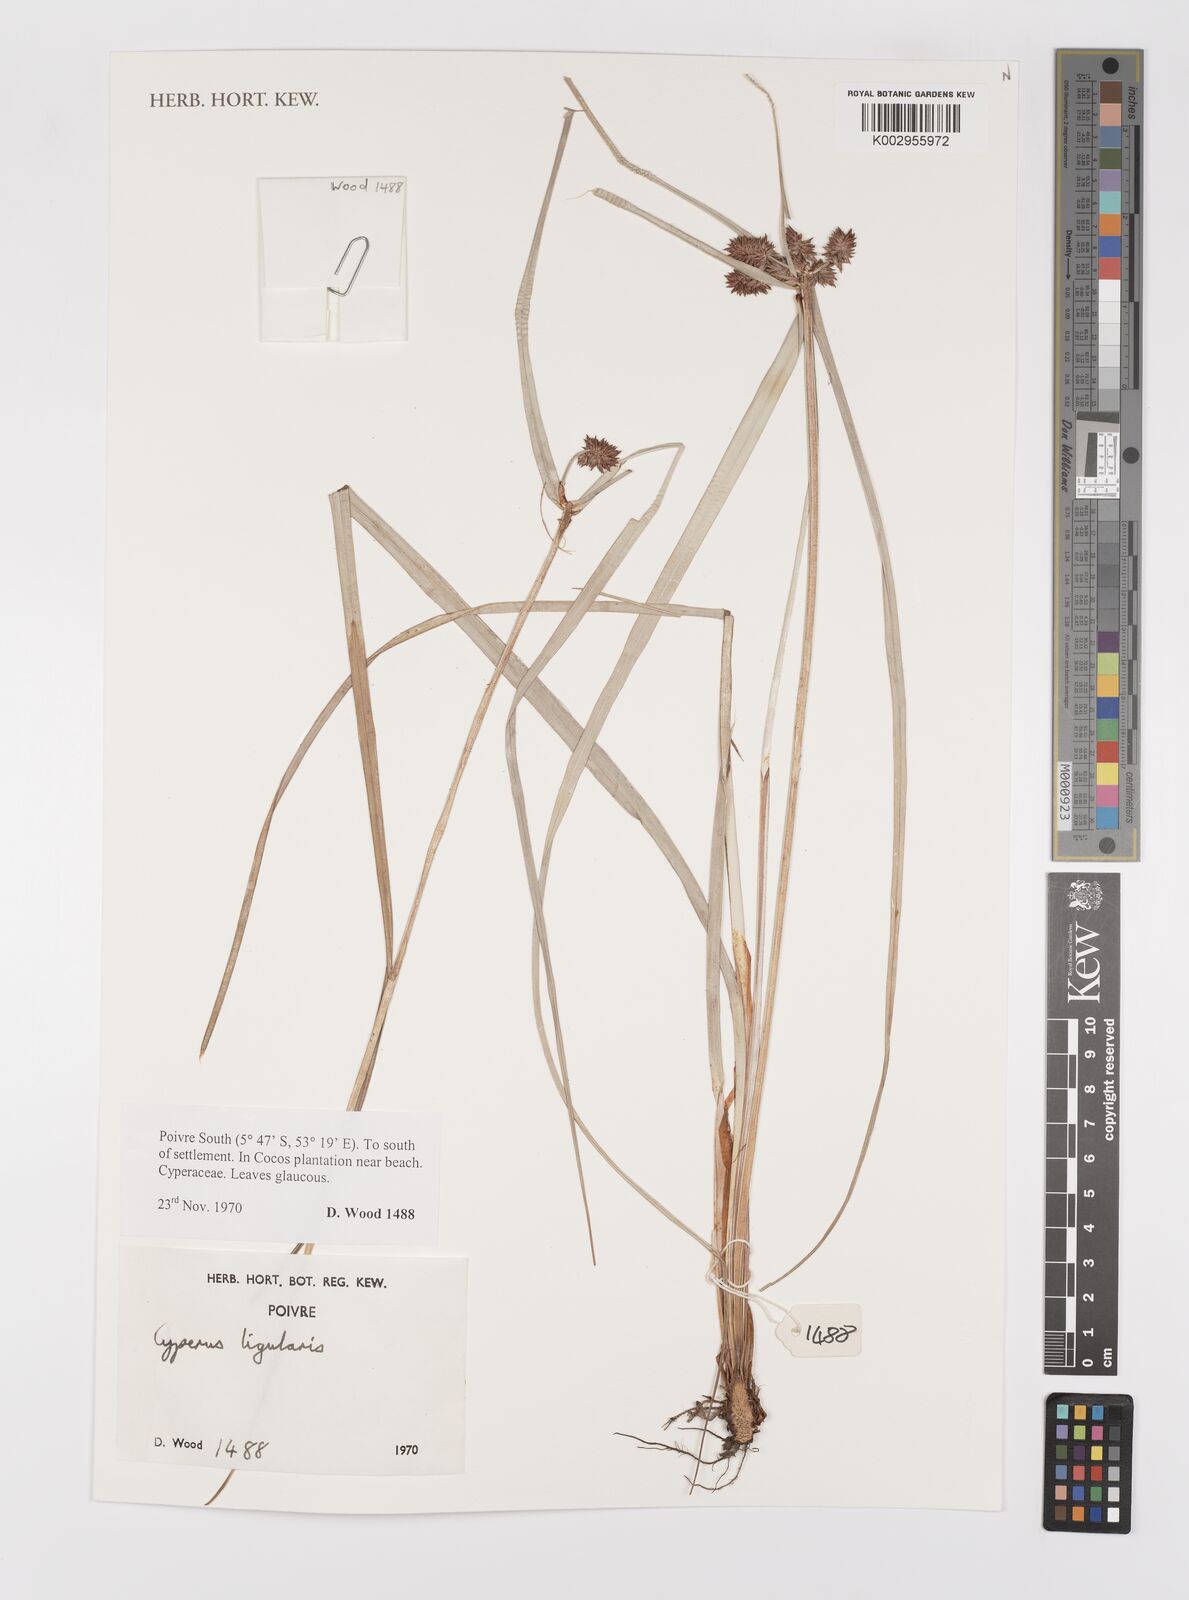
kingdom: Plantae
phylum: Tracheophyta
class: Liliopsida
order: Poales
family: Cyperaceae
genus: Cyperus
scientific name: Cyperus ligularis
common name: Swamp flat sedge
